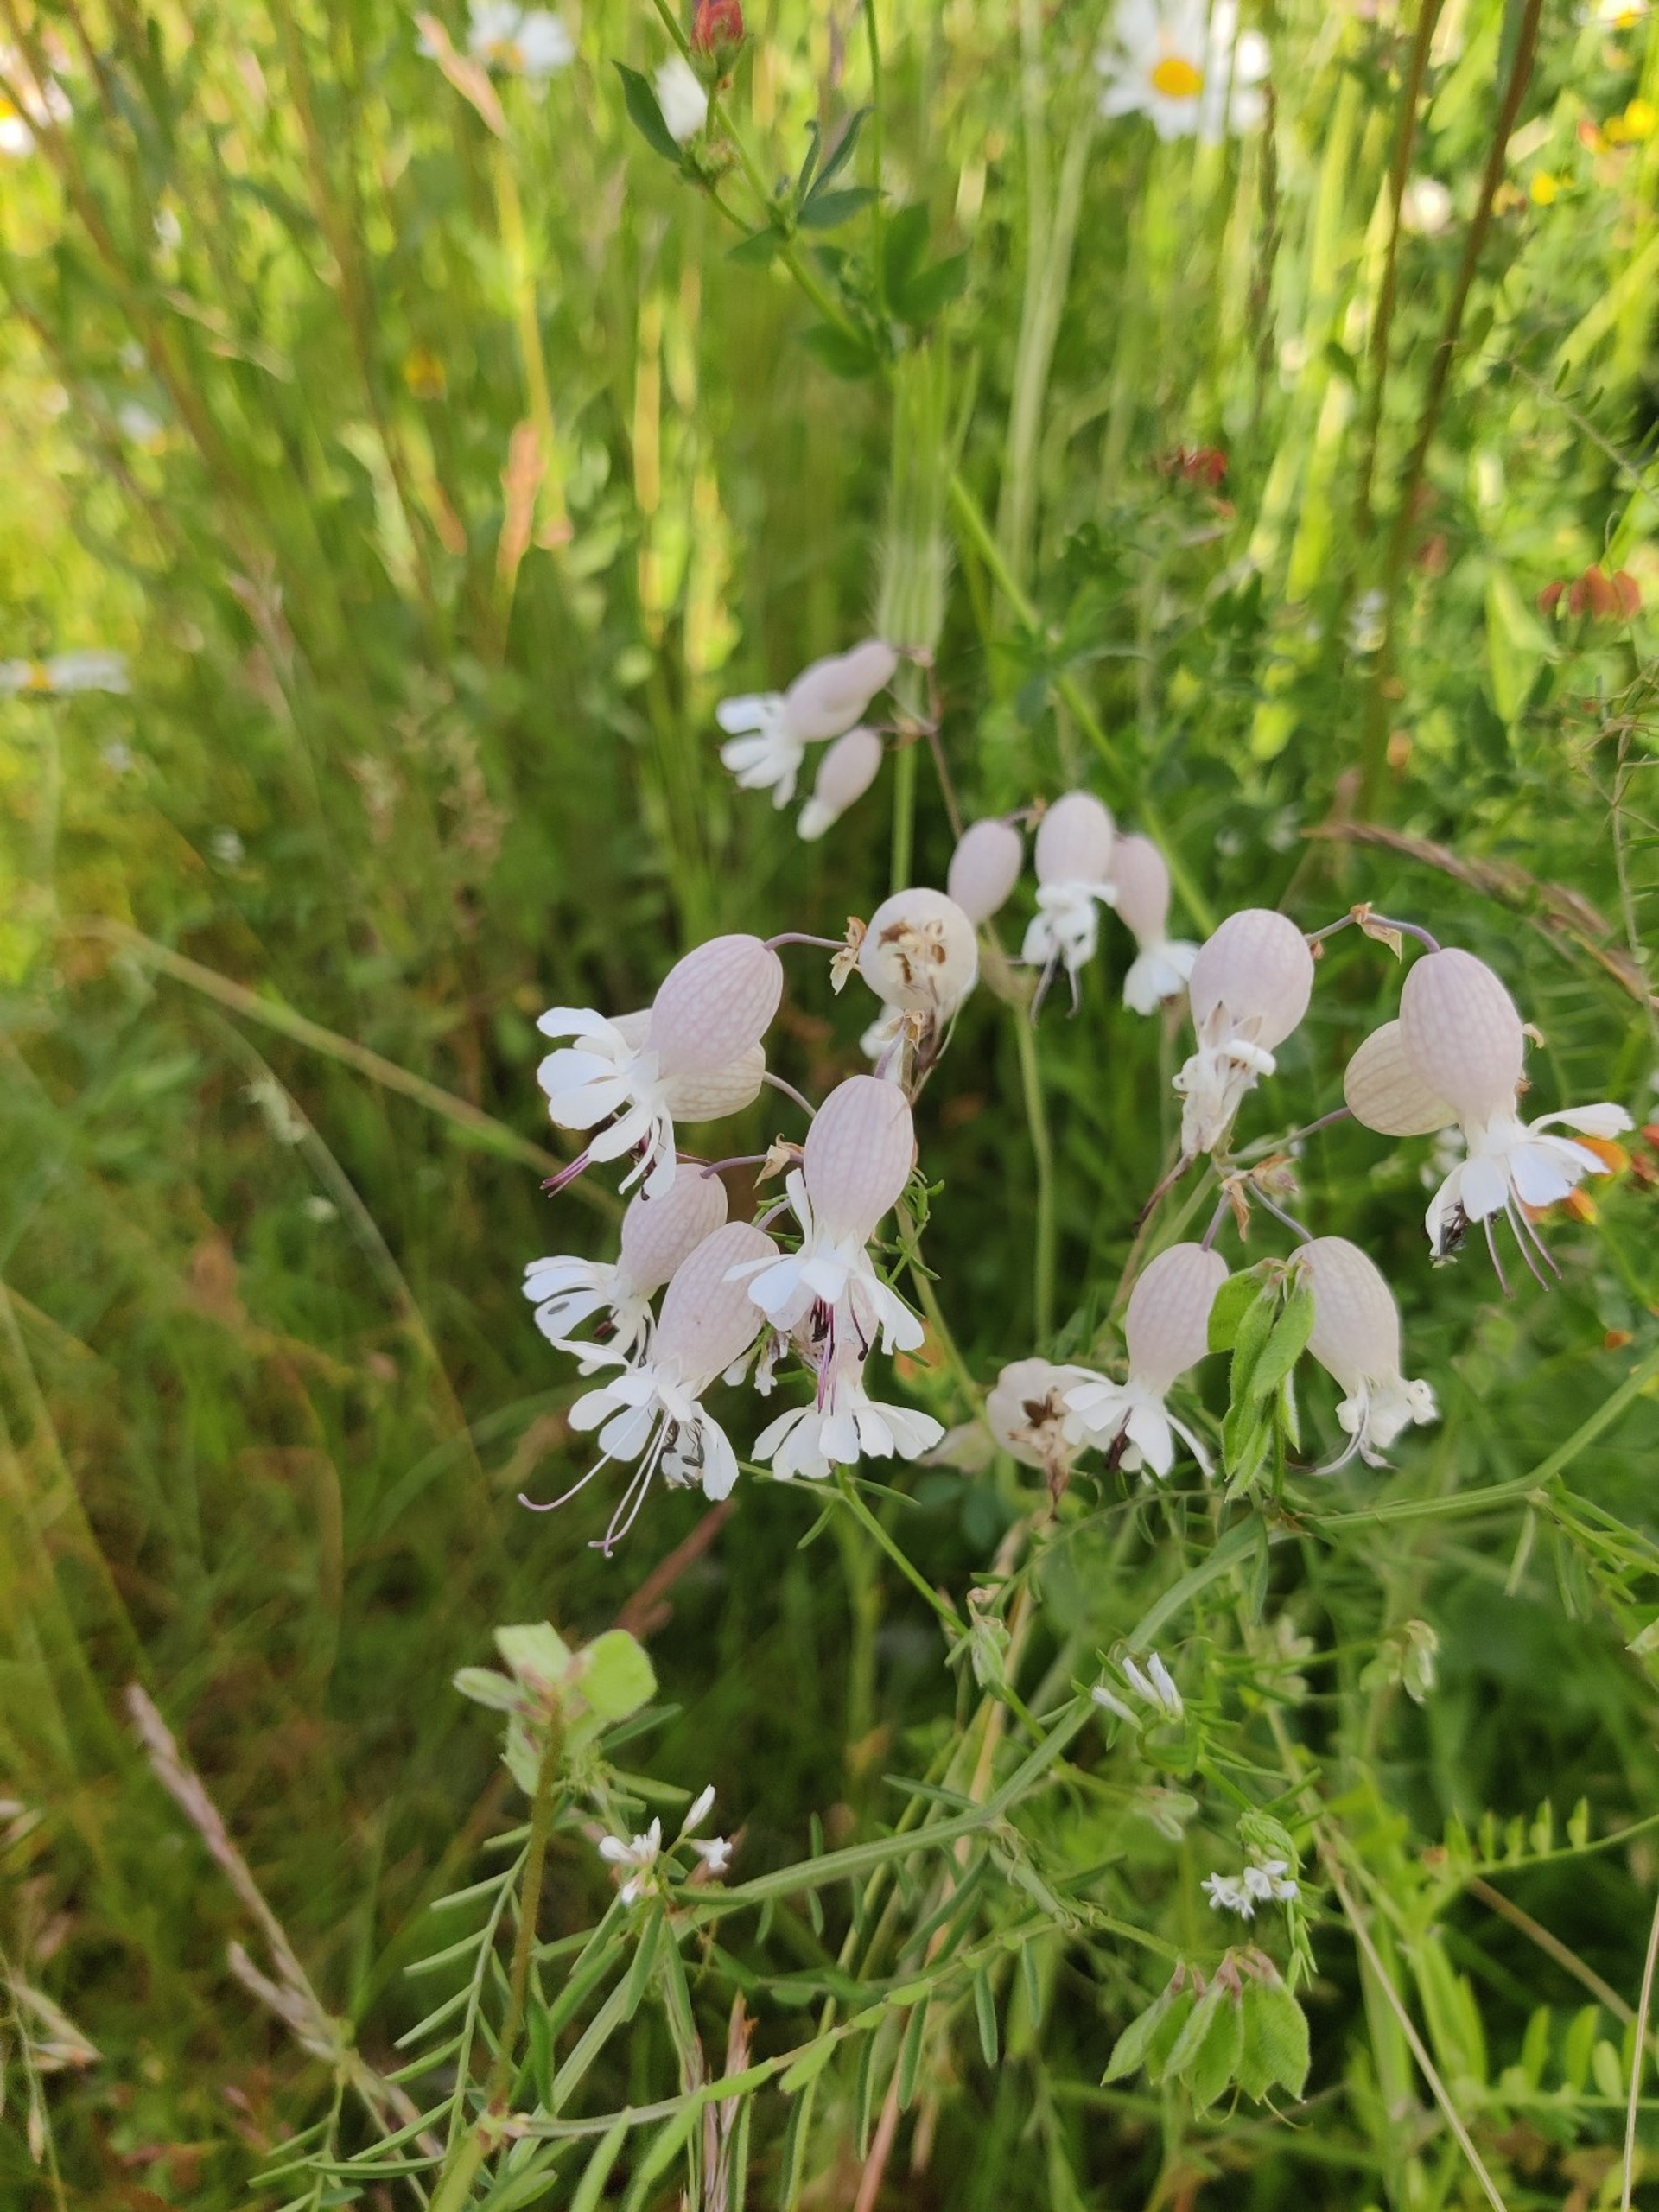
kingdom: Plantae
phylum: Tracheophyta
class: Magnoliopsida
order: Caryophyllales
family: Caryophyllaceae
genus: Silene
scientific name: Silene vulgaris
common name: Blæresmælde
